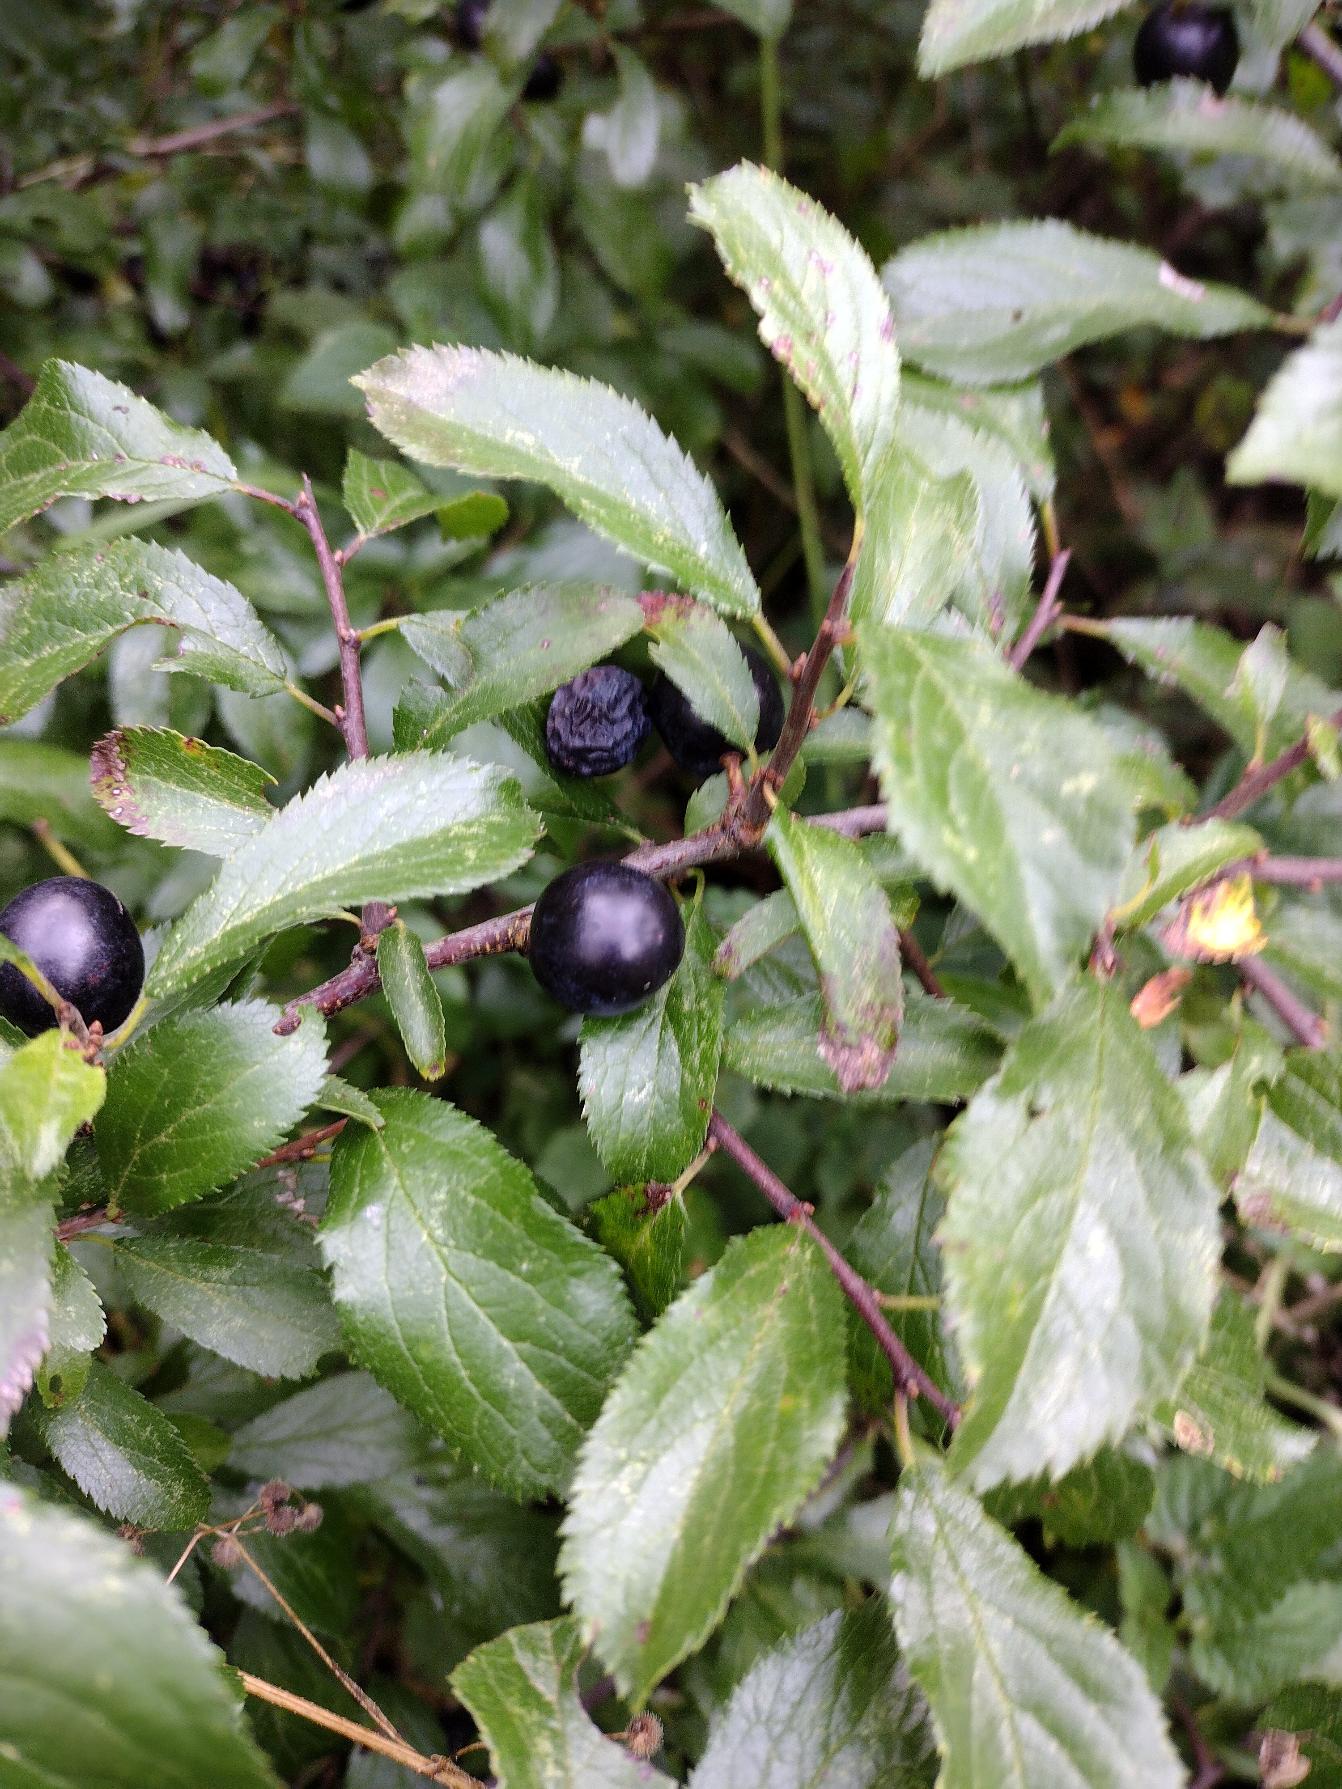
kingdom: Plantae
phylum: Tracheophyta
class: Magnoliopsida
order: Rosales
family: Rosaceae
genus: Prunus
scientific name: Prunus spinosa
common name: Slåen
